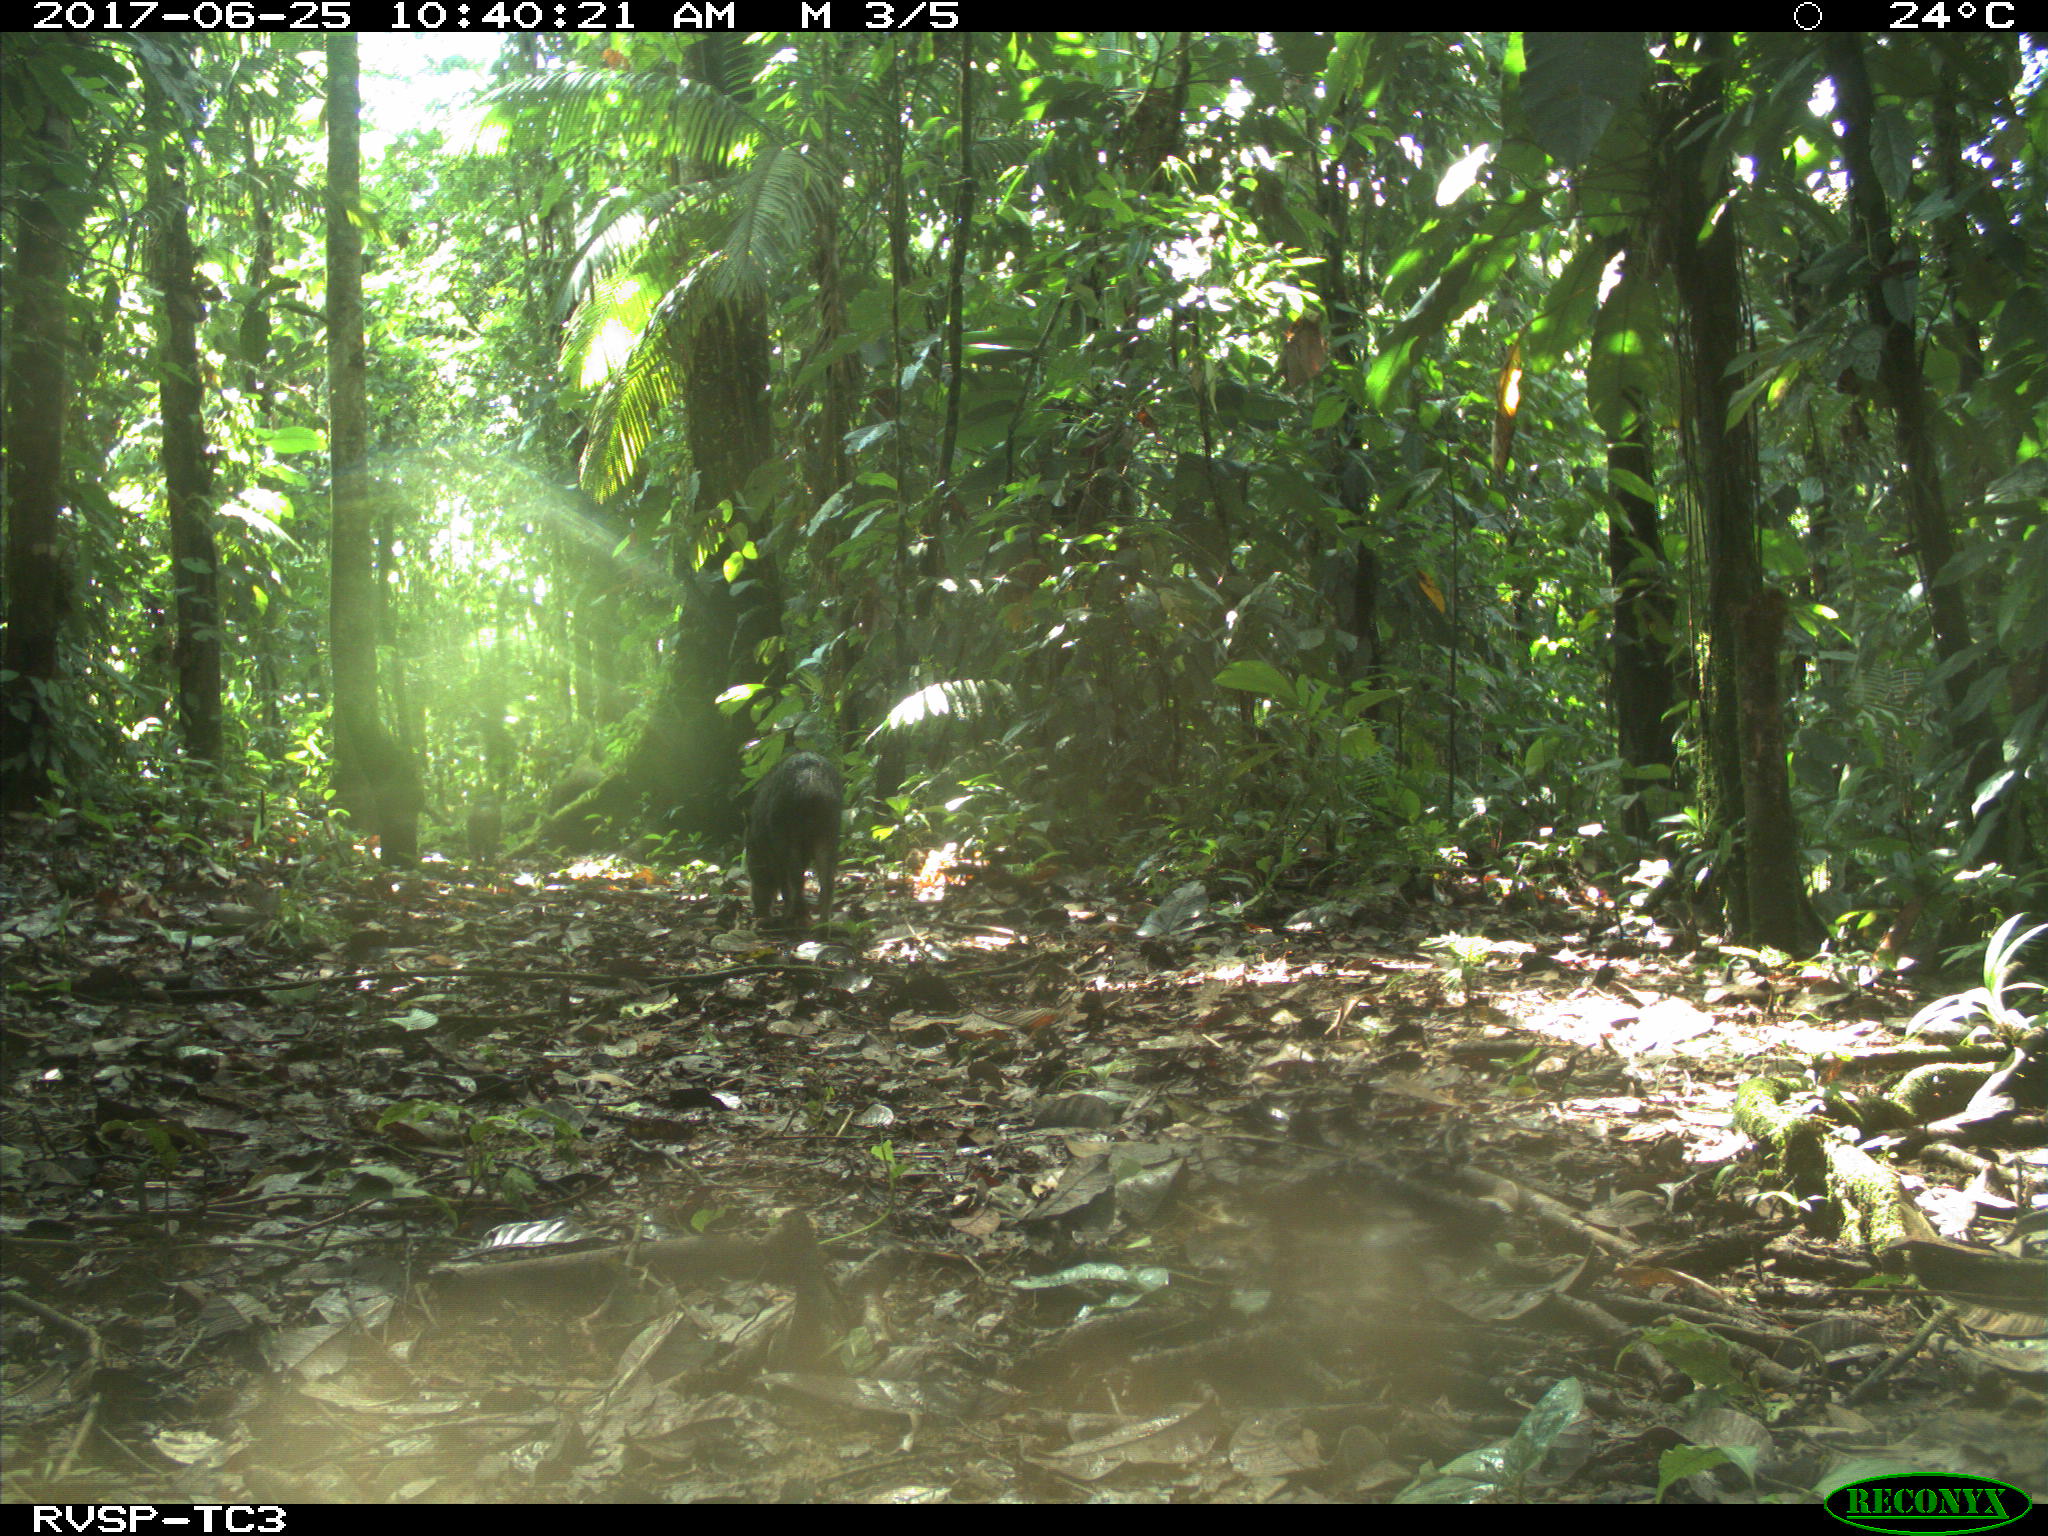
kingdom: Animalia
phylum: Chordata
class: Mammalia
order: Artiodactyla
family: Tayassuidae
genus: Tayassu
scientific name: Tayassu pecari
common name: White-lipped peccary
